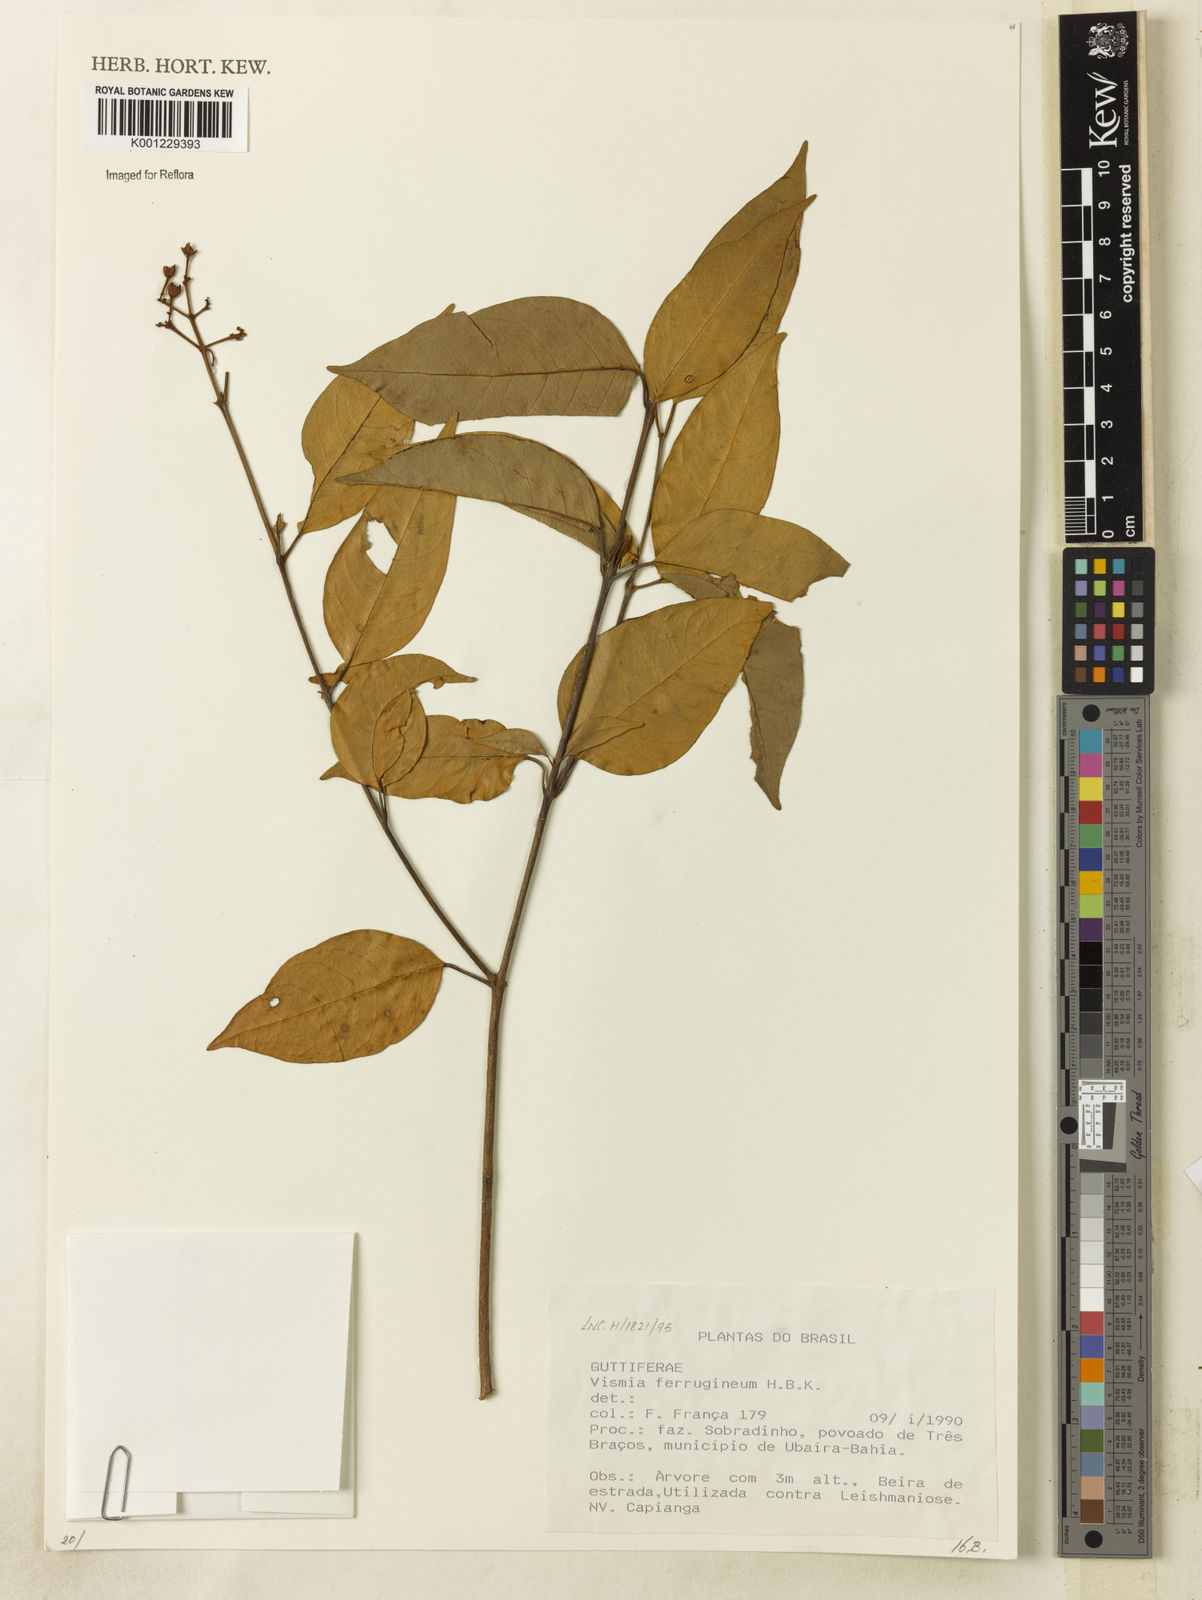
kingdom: Plantae
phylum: Tracheophyta
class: Magnoliopsida
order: Malpighiales
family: Hypericaceae
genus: Vismia
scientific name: Vismia ferruginea
